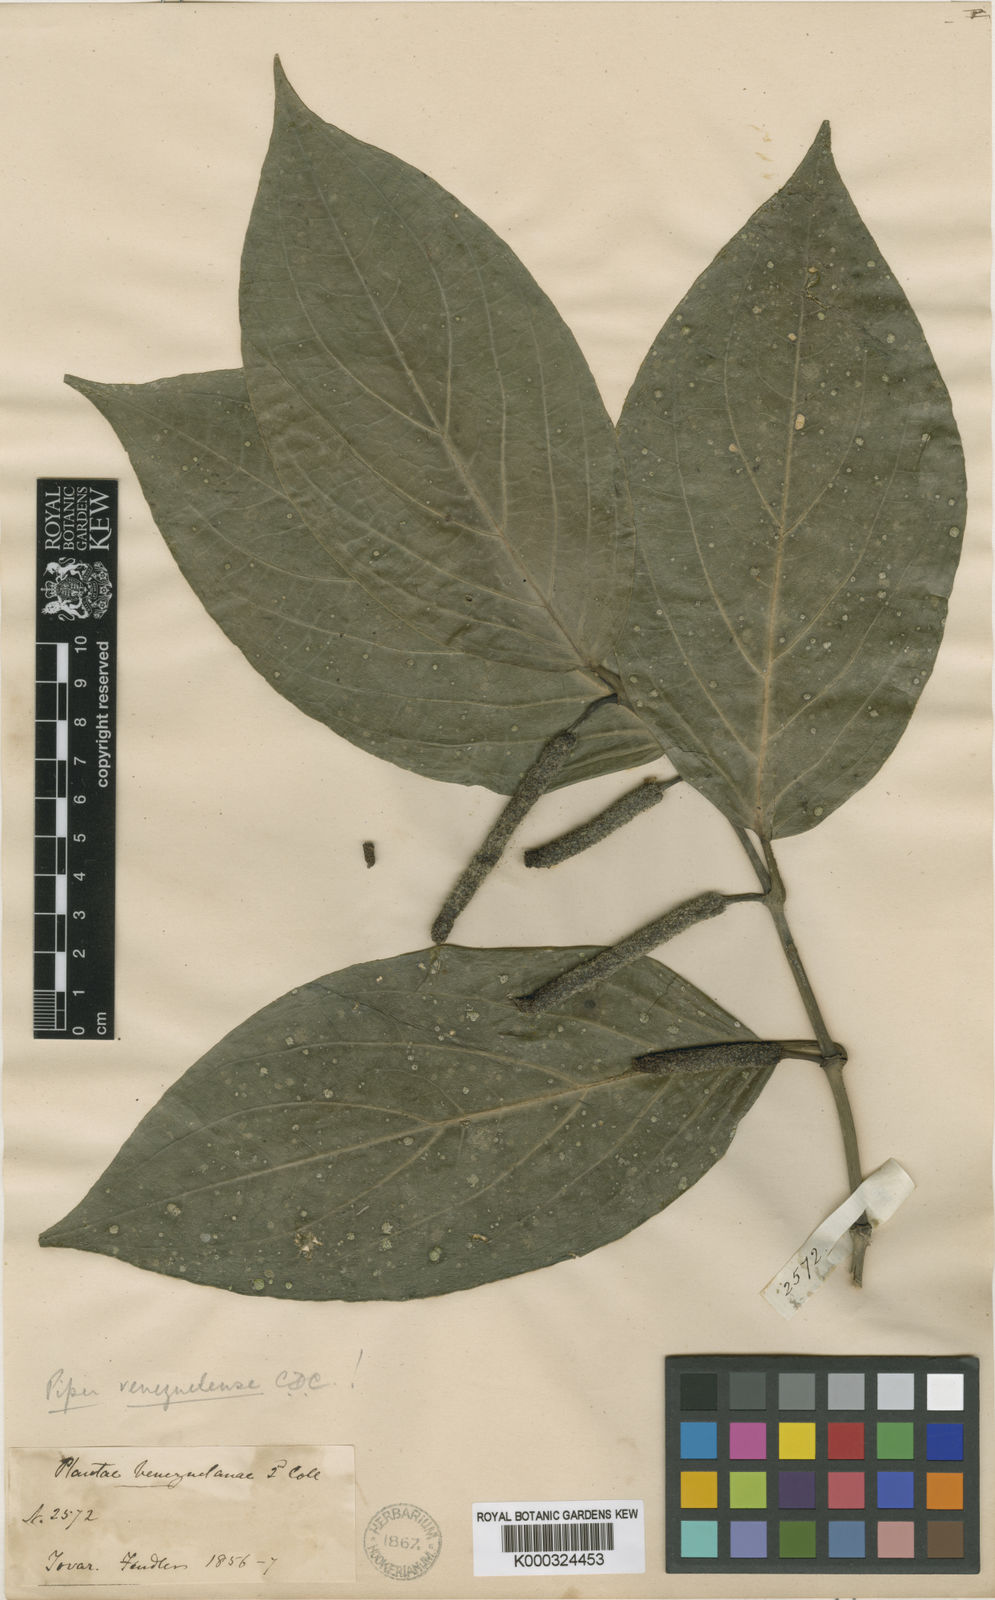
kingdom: Plantae
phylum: Tracheophyta
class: Magnoliopsida
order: Piperales
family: Piperaceae
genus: Piper
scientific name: Piper glabrescens
